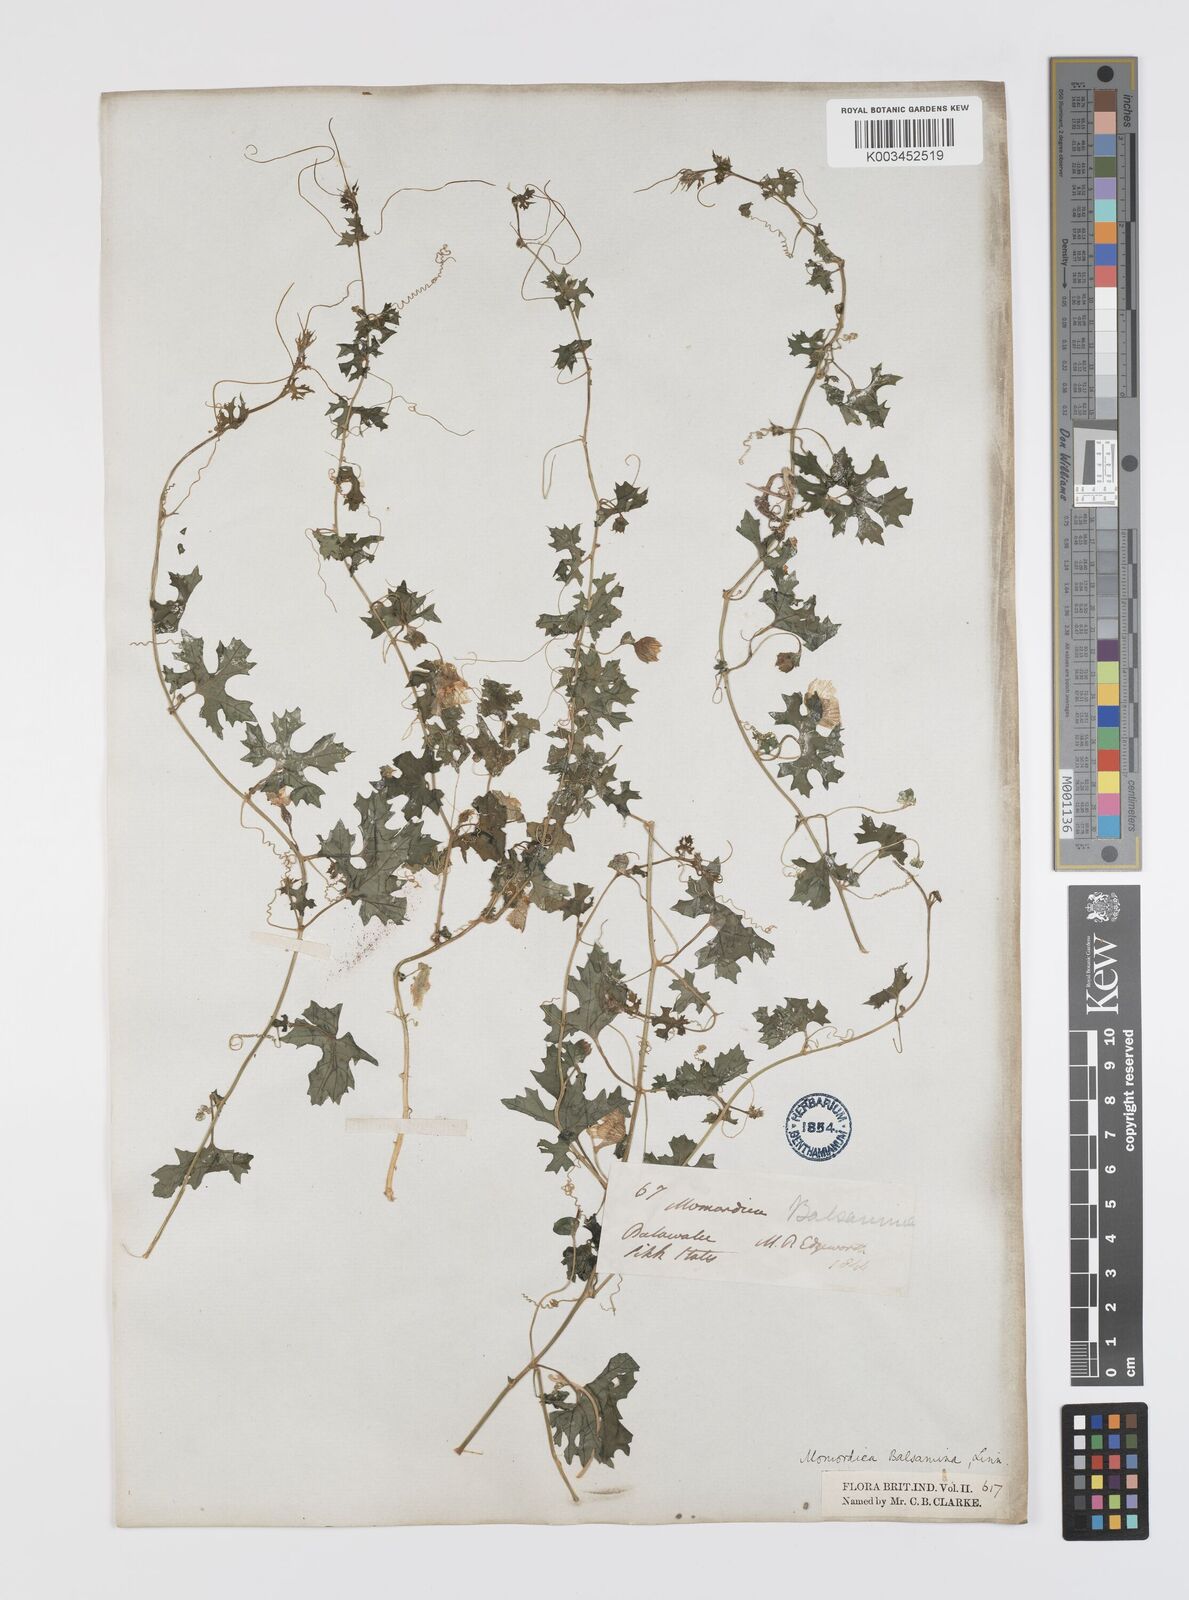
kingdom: Plantae
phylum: Tracheophyta
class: Magnoliopsida
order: Cucurbitales
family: Cucurbitaceae
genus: Momordica
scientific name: Momordica balsamina
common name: Southern balsampear
